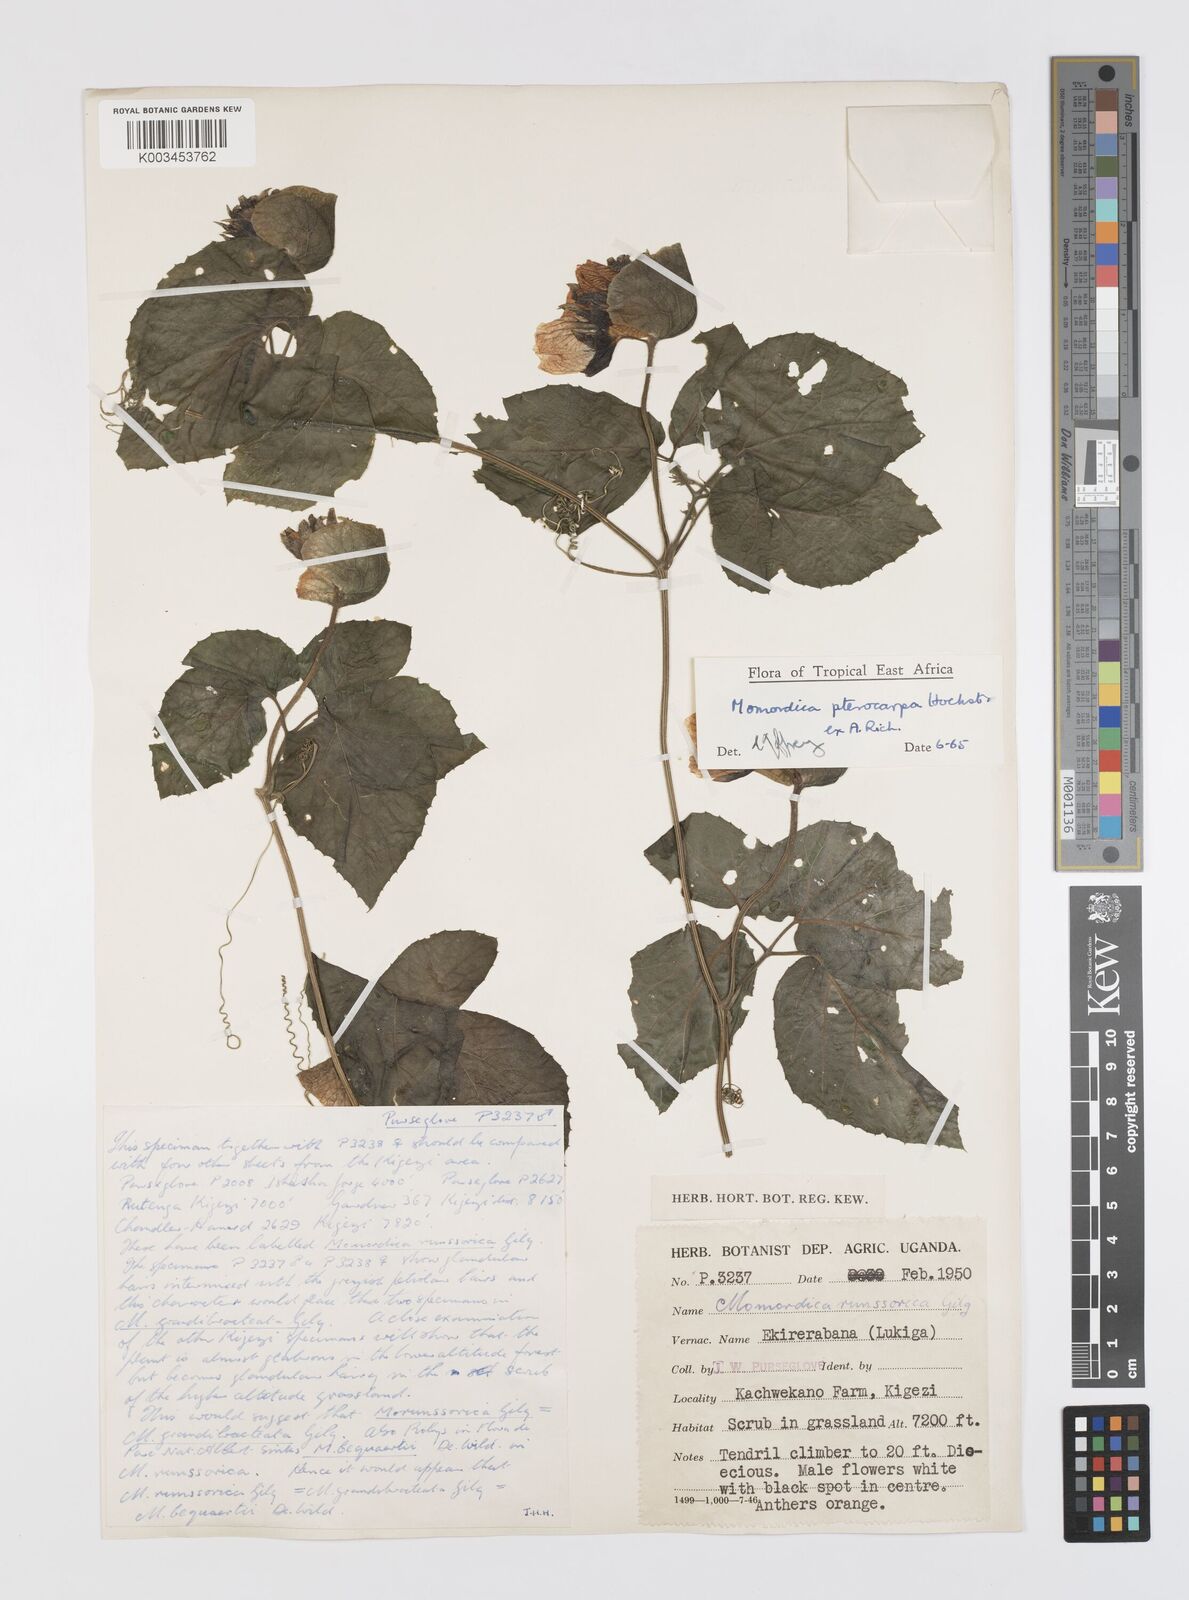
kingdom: Plantae
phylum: Tracheophyta
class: Magnoliopsida
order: Cucurbitales
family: Cucurbitaceae
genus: Momordica
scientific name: Momordica pterocarpa
